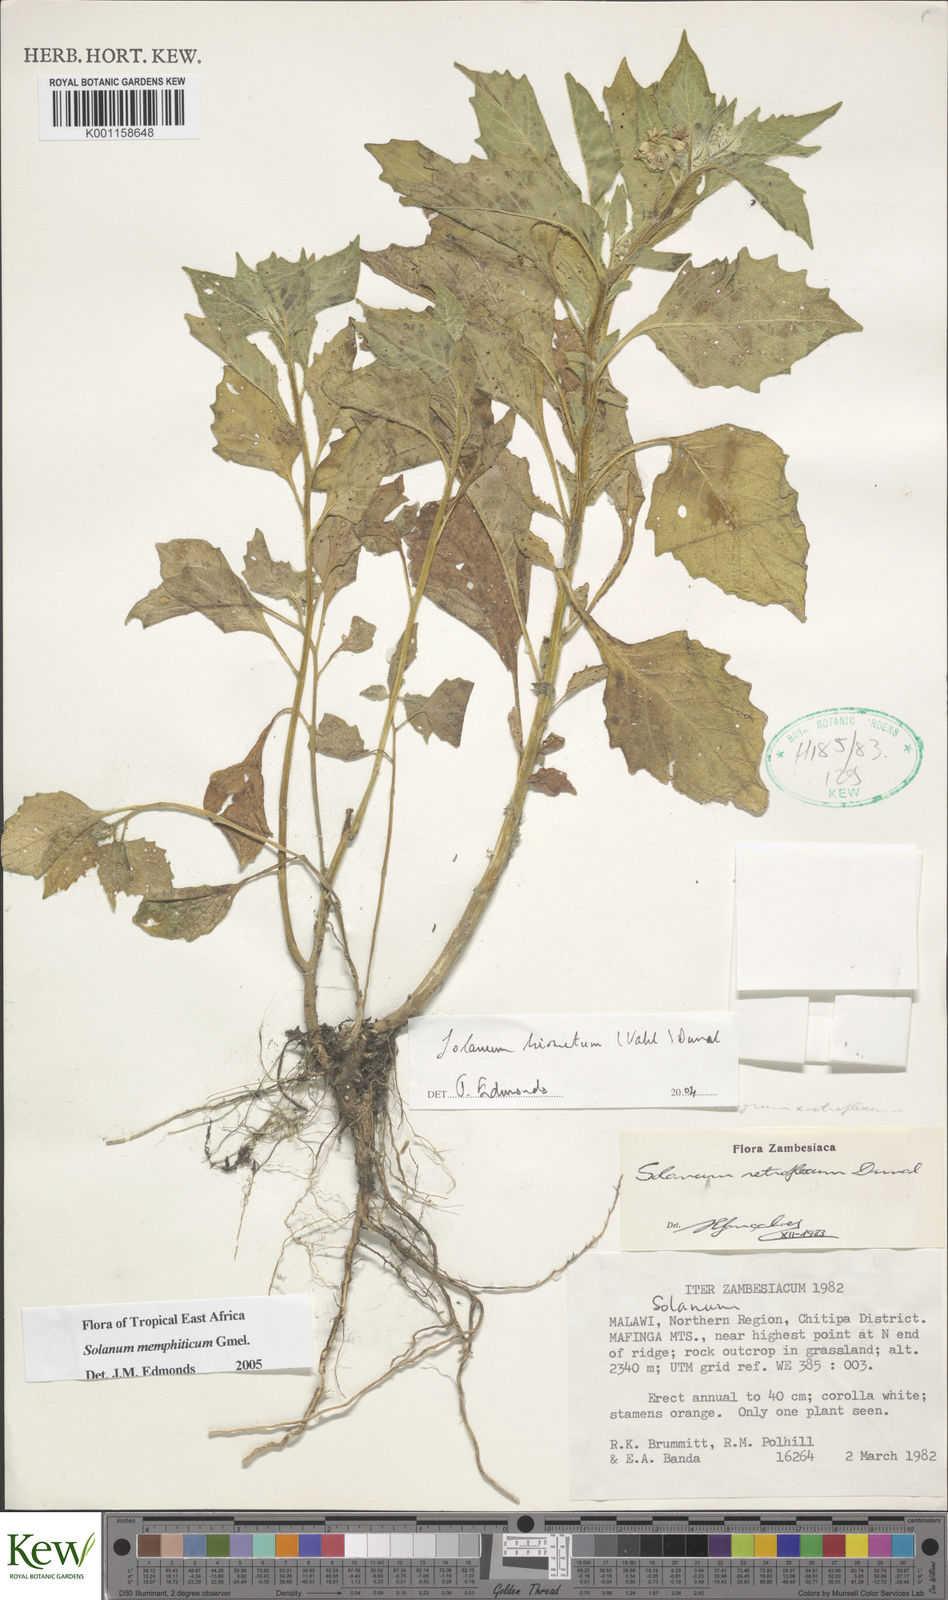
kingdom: Plantae
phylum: Tracheophyta
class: Magnoliopsida
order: Solanales
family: Solanaceae
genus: Solanum
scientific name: Solanum memphiticum
